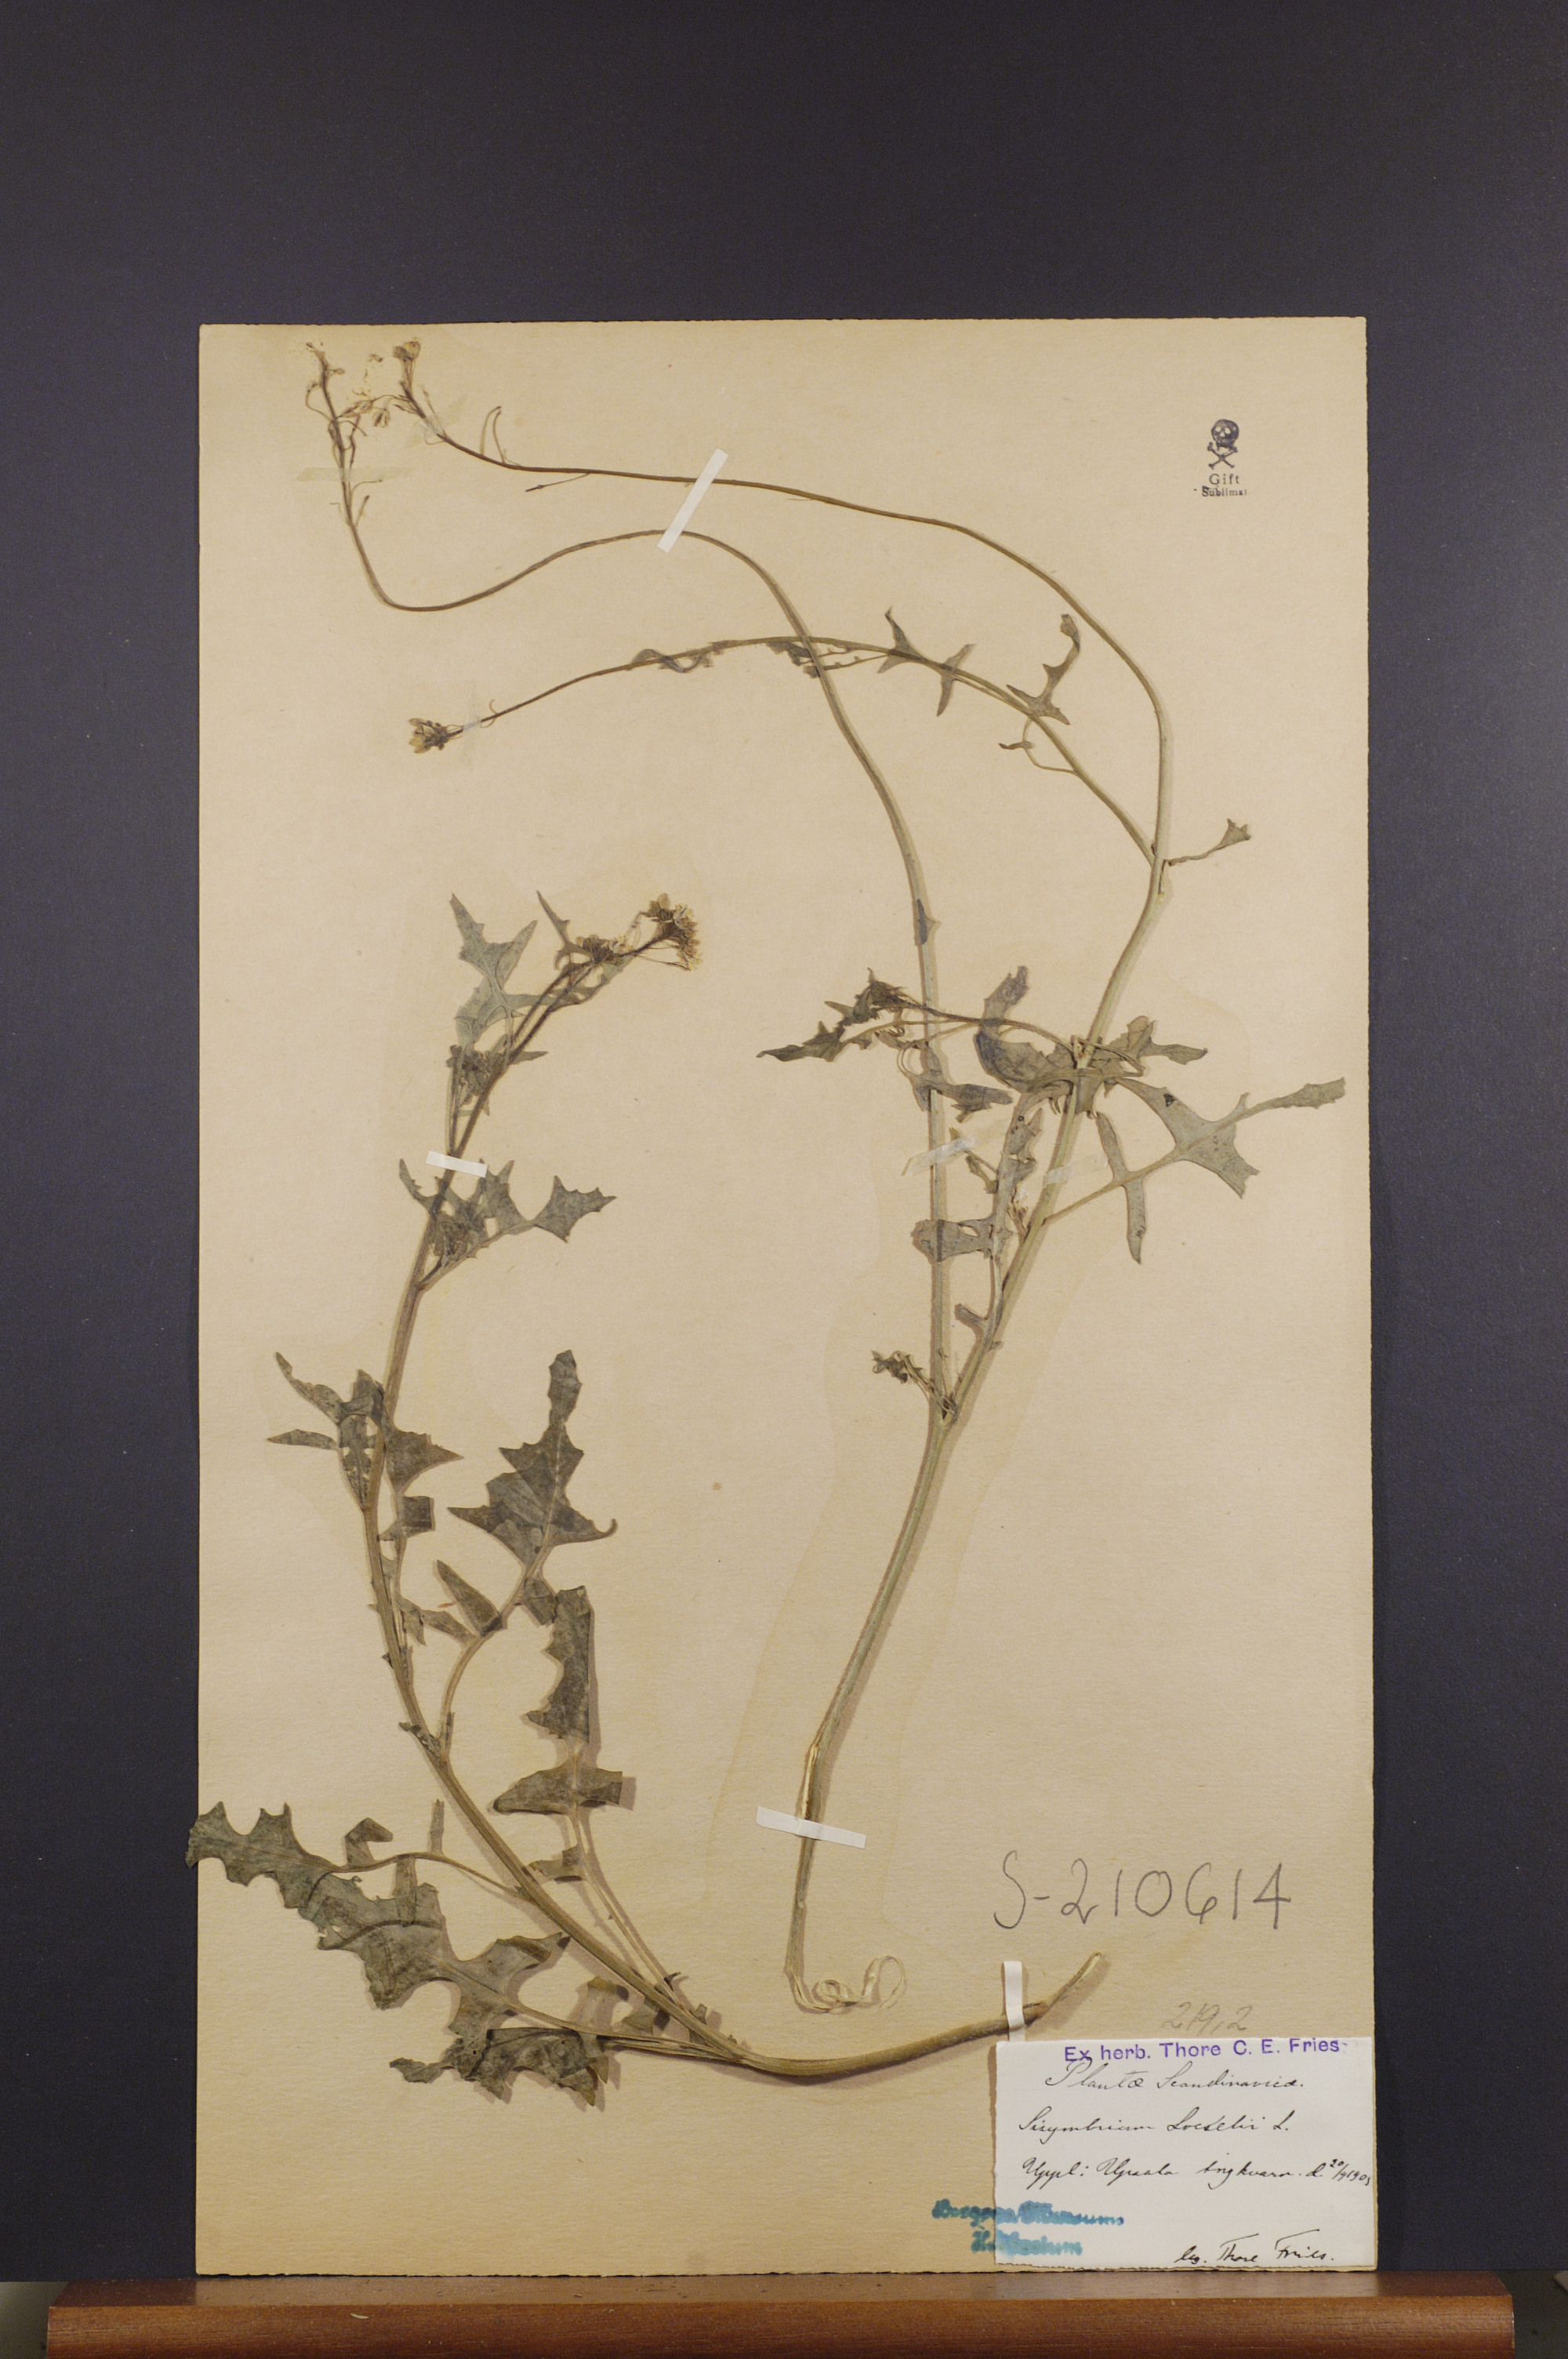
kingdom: Plantae
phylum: Tracheophyta
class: Magnoliopsida
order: Brassicales
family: Brassicaceae
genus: Sisymbrium
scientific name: Sisymbrium loeselii
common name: False london-rocket
